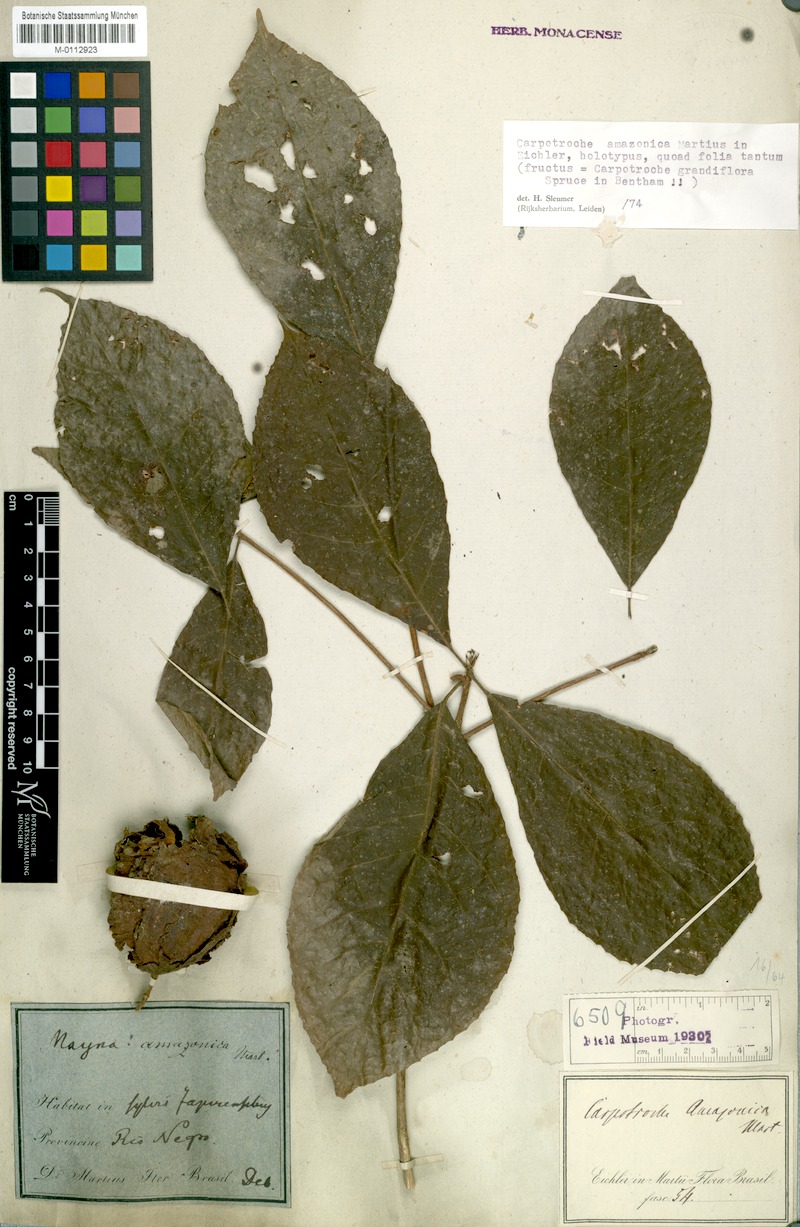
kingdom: Plantae
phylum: Tracheophyta
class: Magnoliopsida
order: Malpighiales
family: Achariaceae
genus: Carpotroche
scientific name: Carpotroche grandiflora
